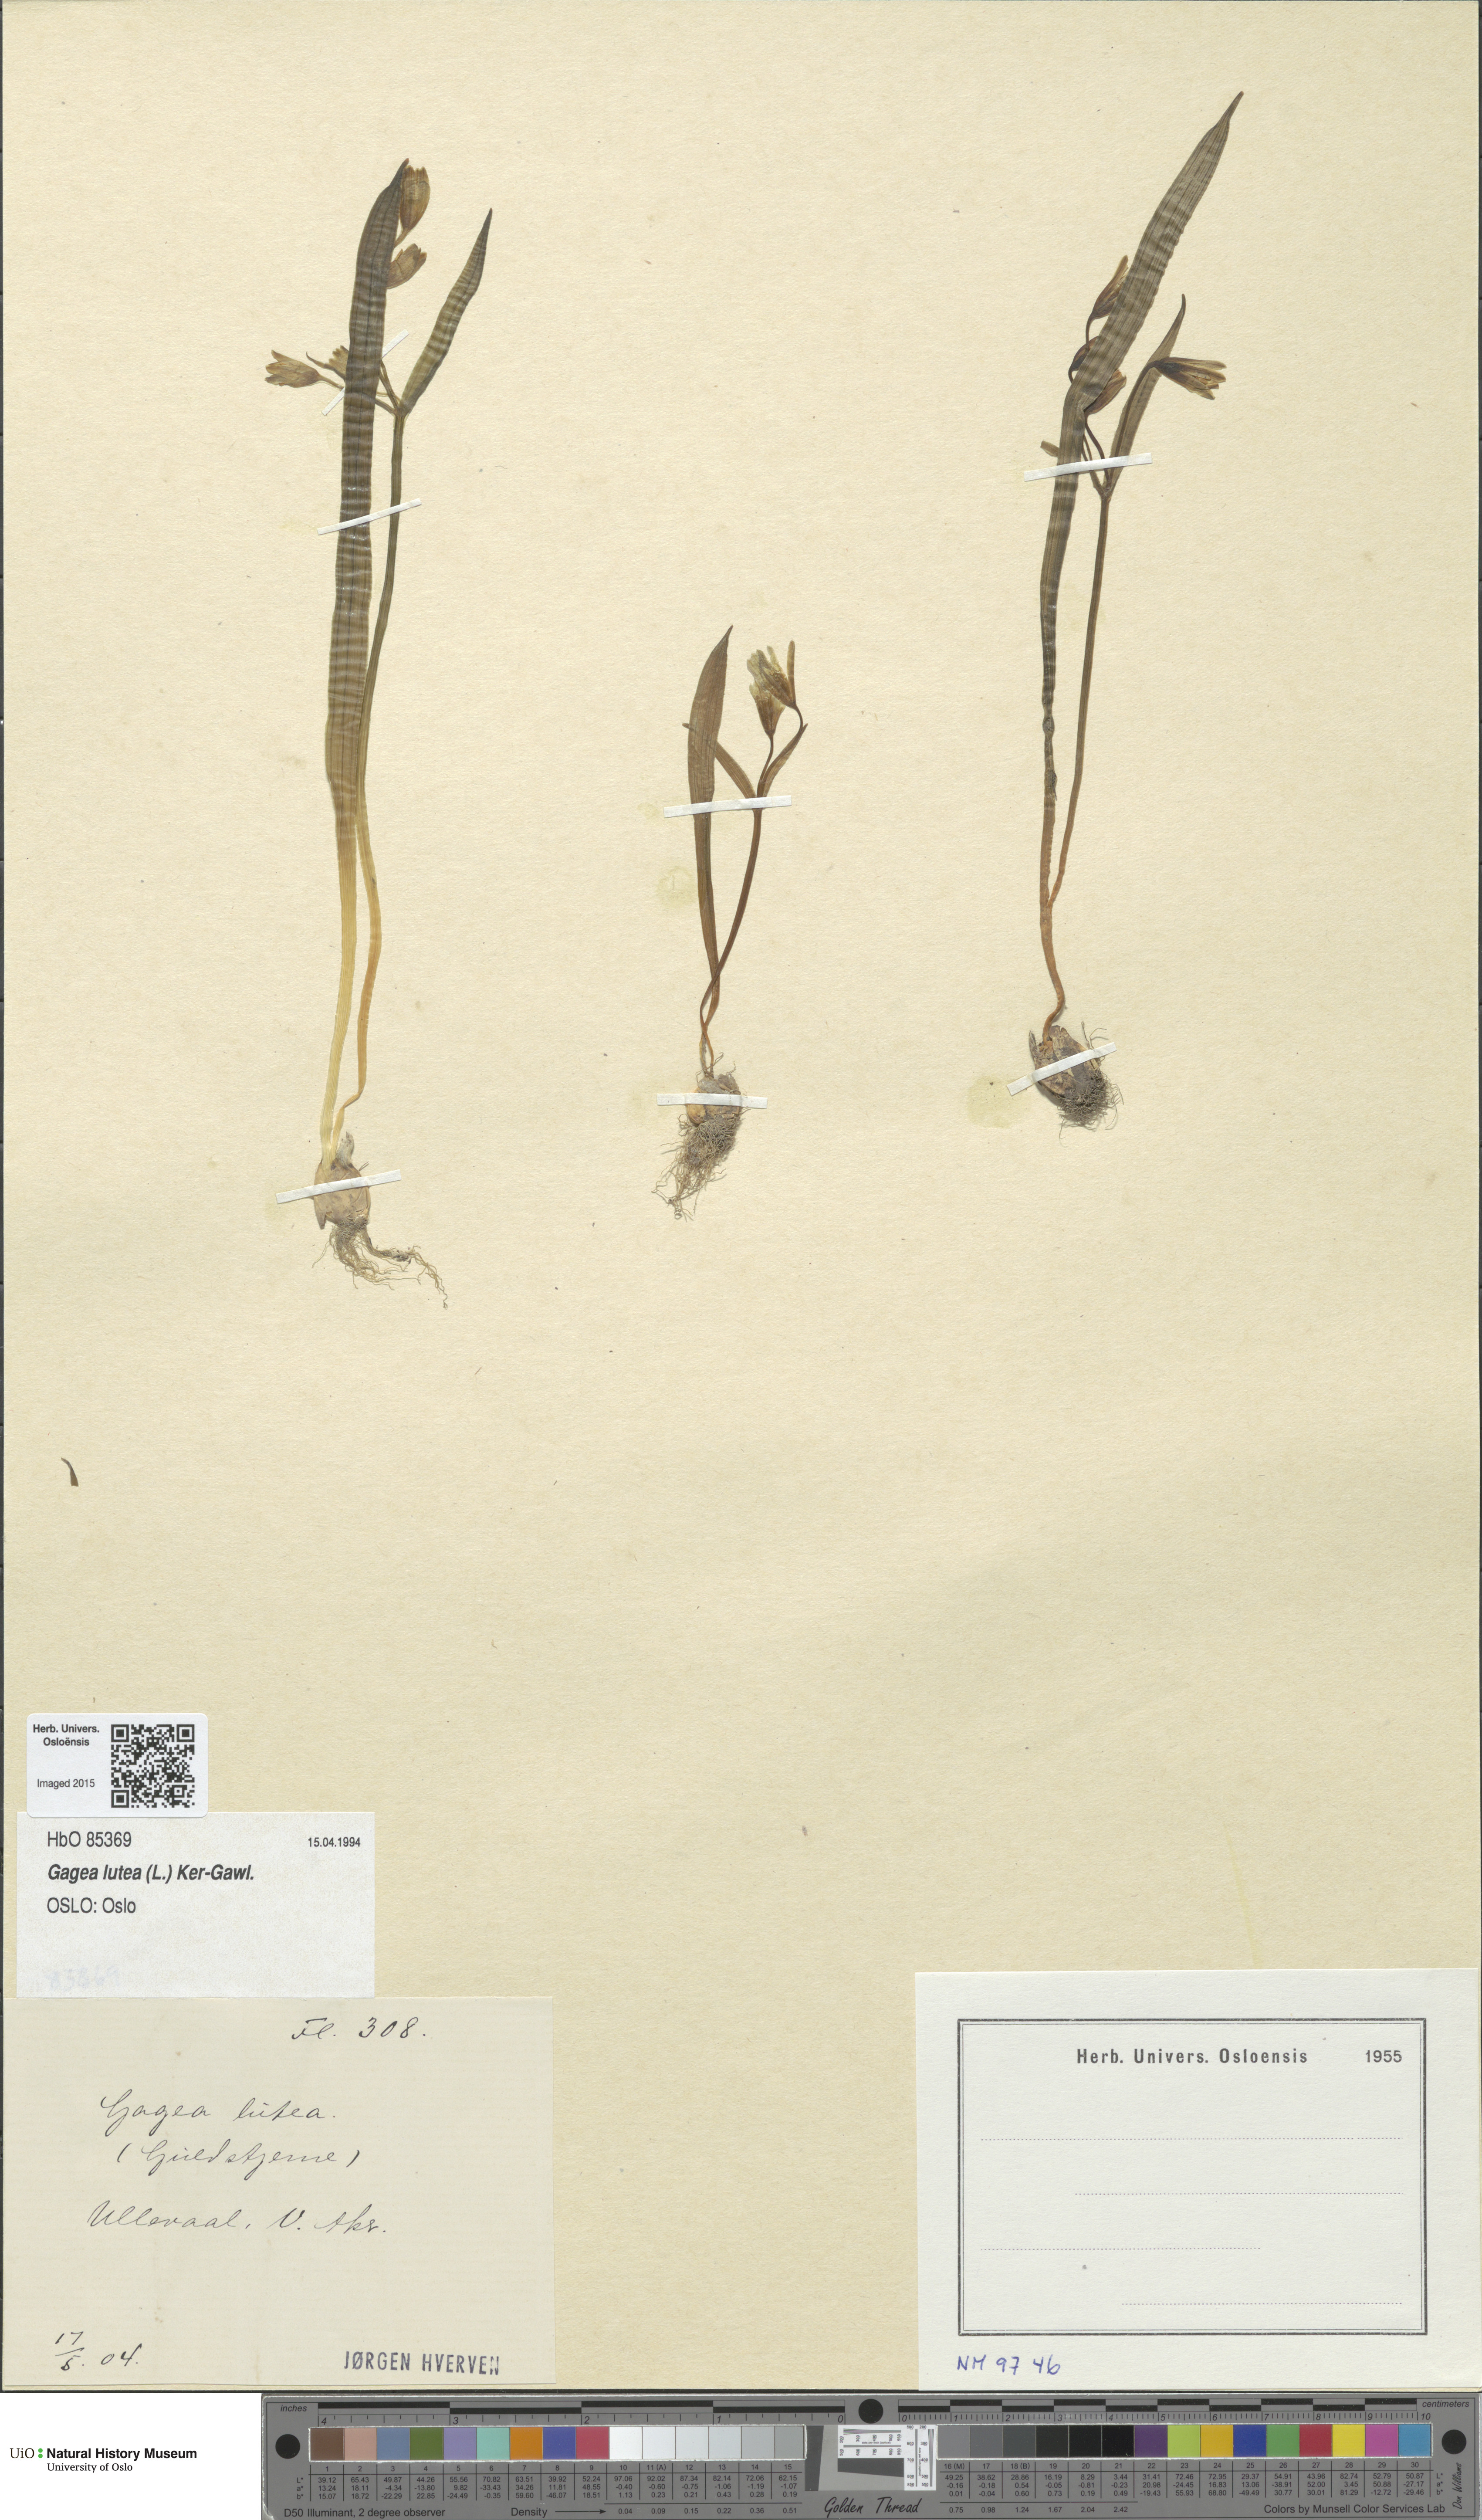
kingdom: Plantae
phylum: Tracheophyta
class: Liliopsida
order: Liliales
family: Liliaceae
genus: Gagea
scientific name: Gagea lutea
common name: Yellow star-of-bethlehem
